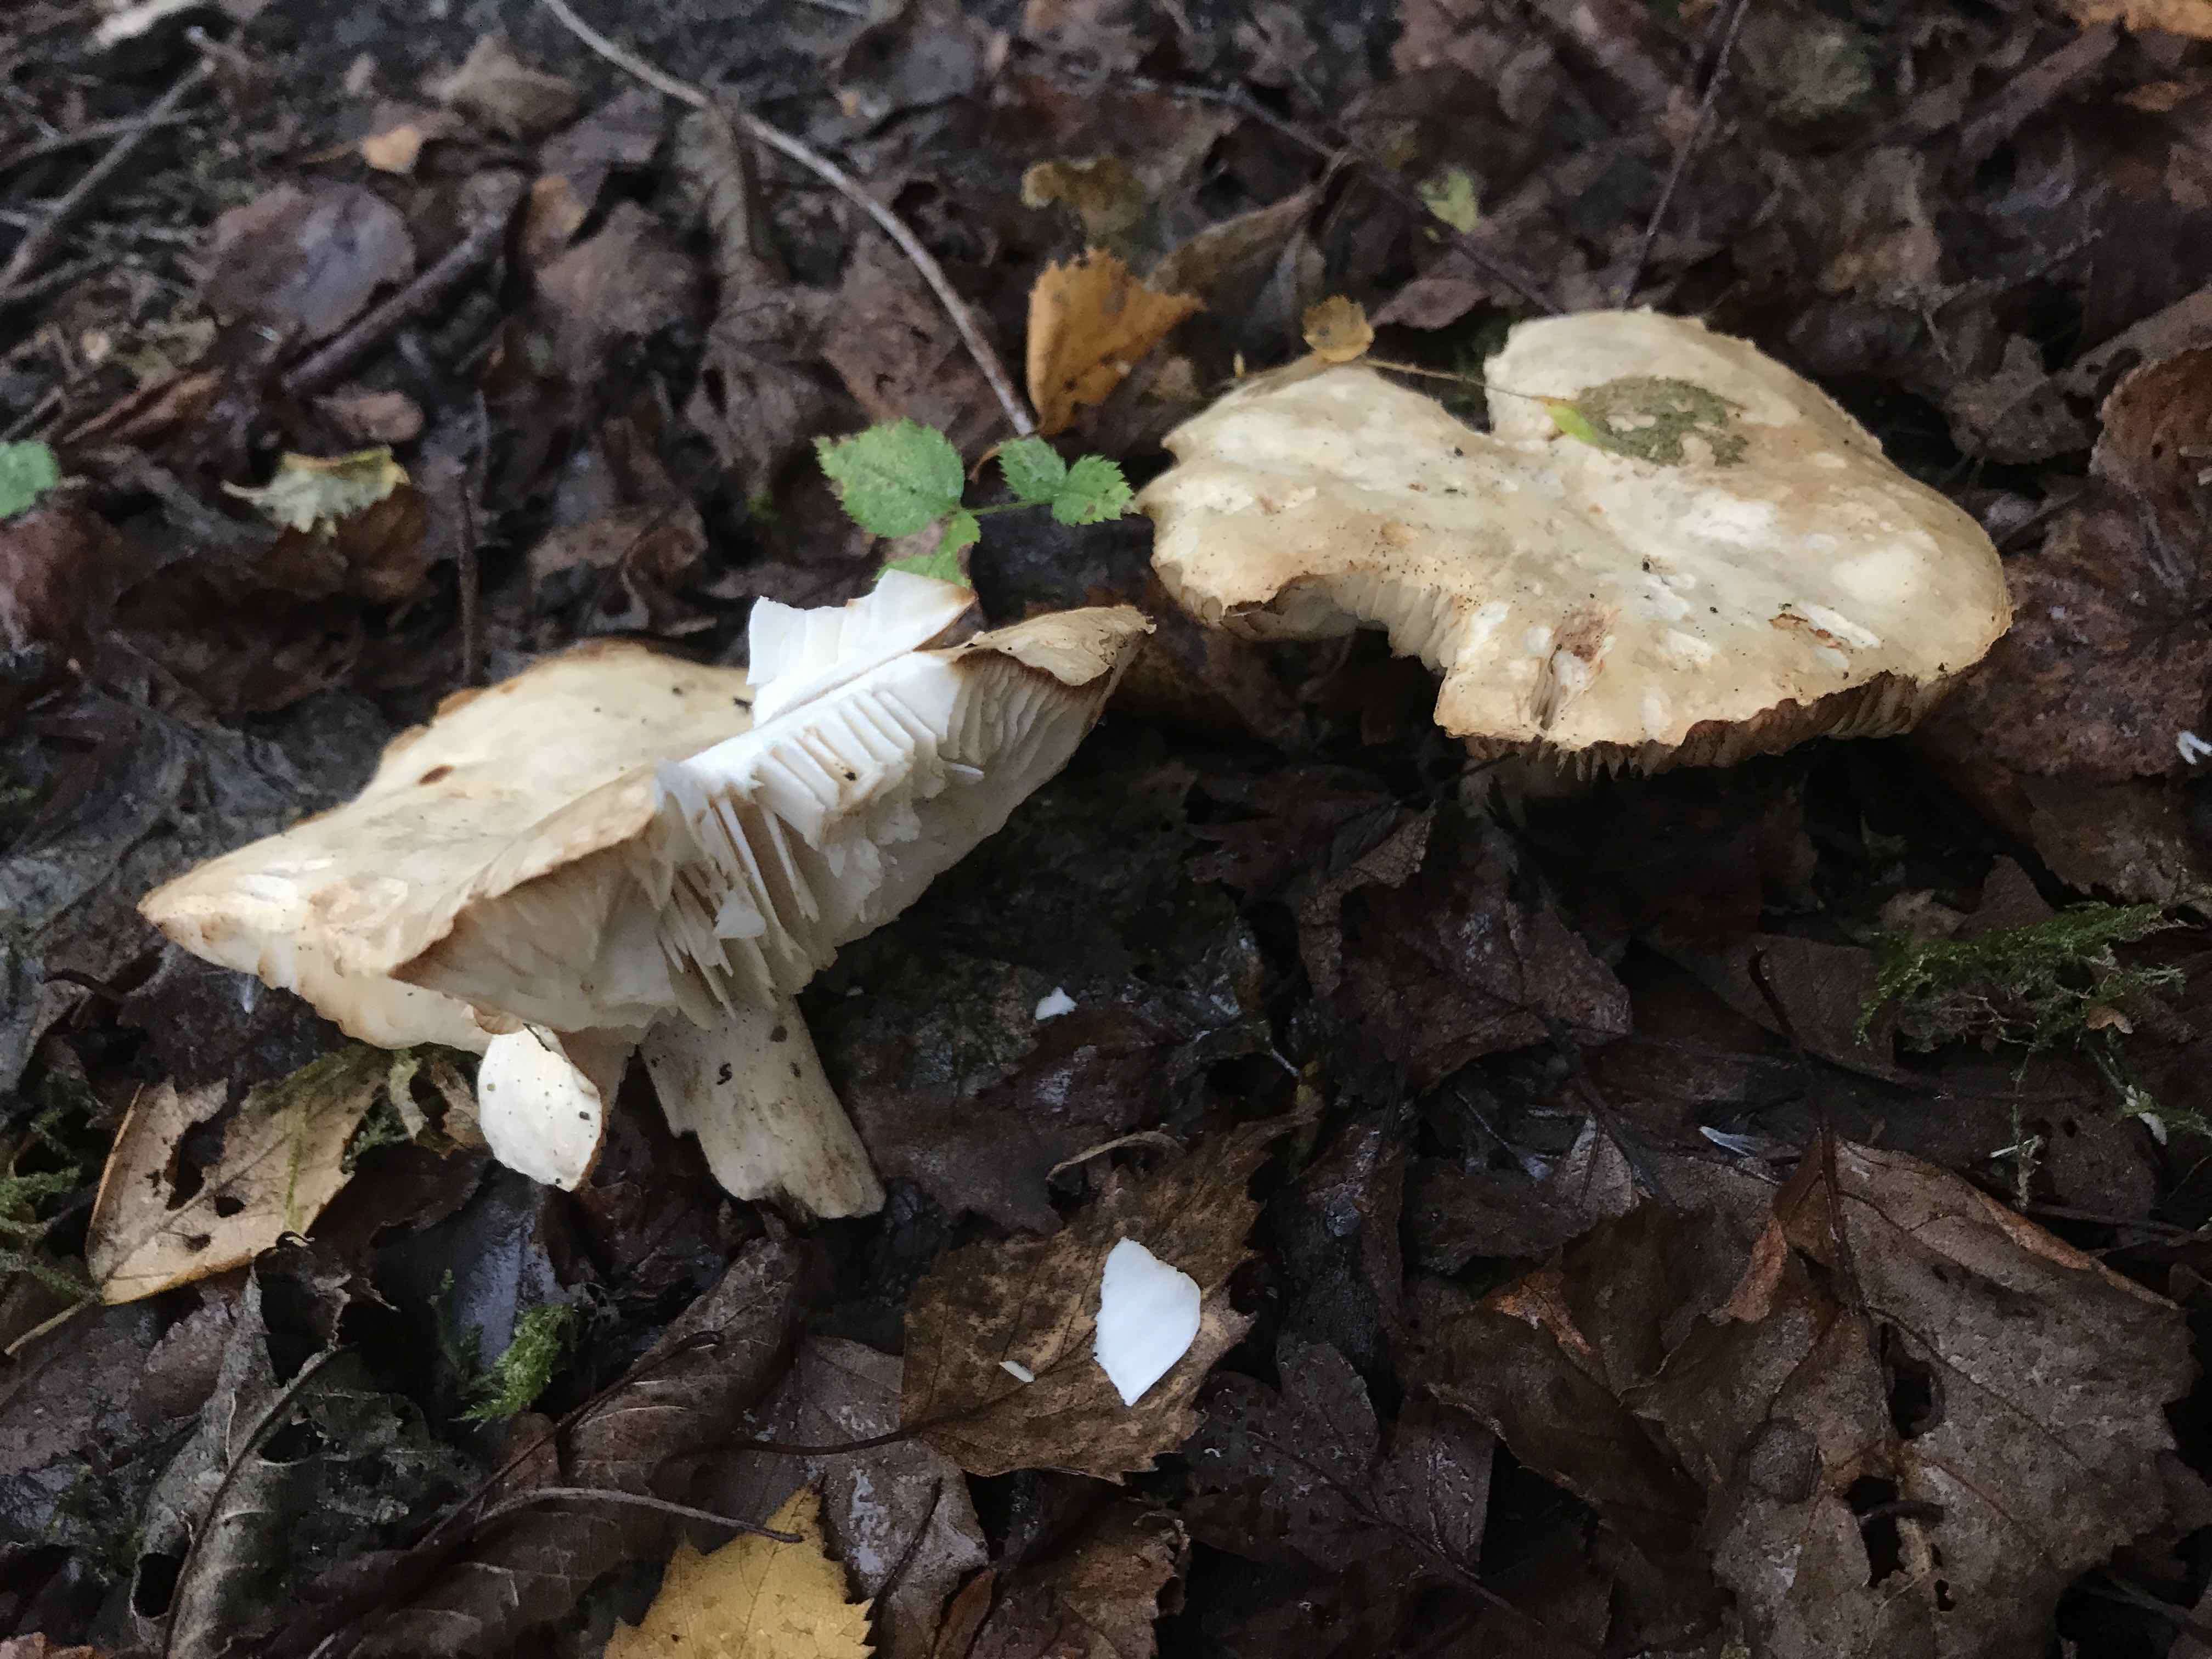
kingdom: Fungi
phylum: Basidiomycota
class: Agaricomycetes
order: Agaricales
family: Tricholomataceae
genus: Tricholoma
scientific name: Tricholoma stiparophyllum
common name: hvid ridderhat
